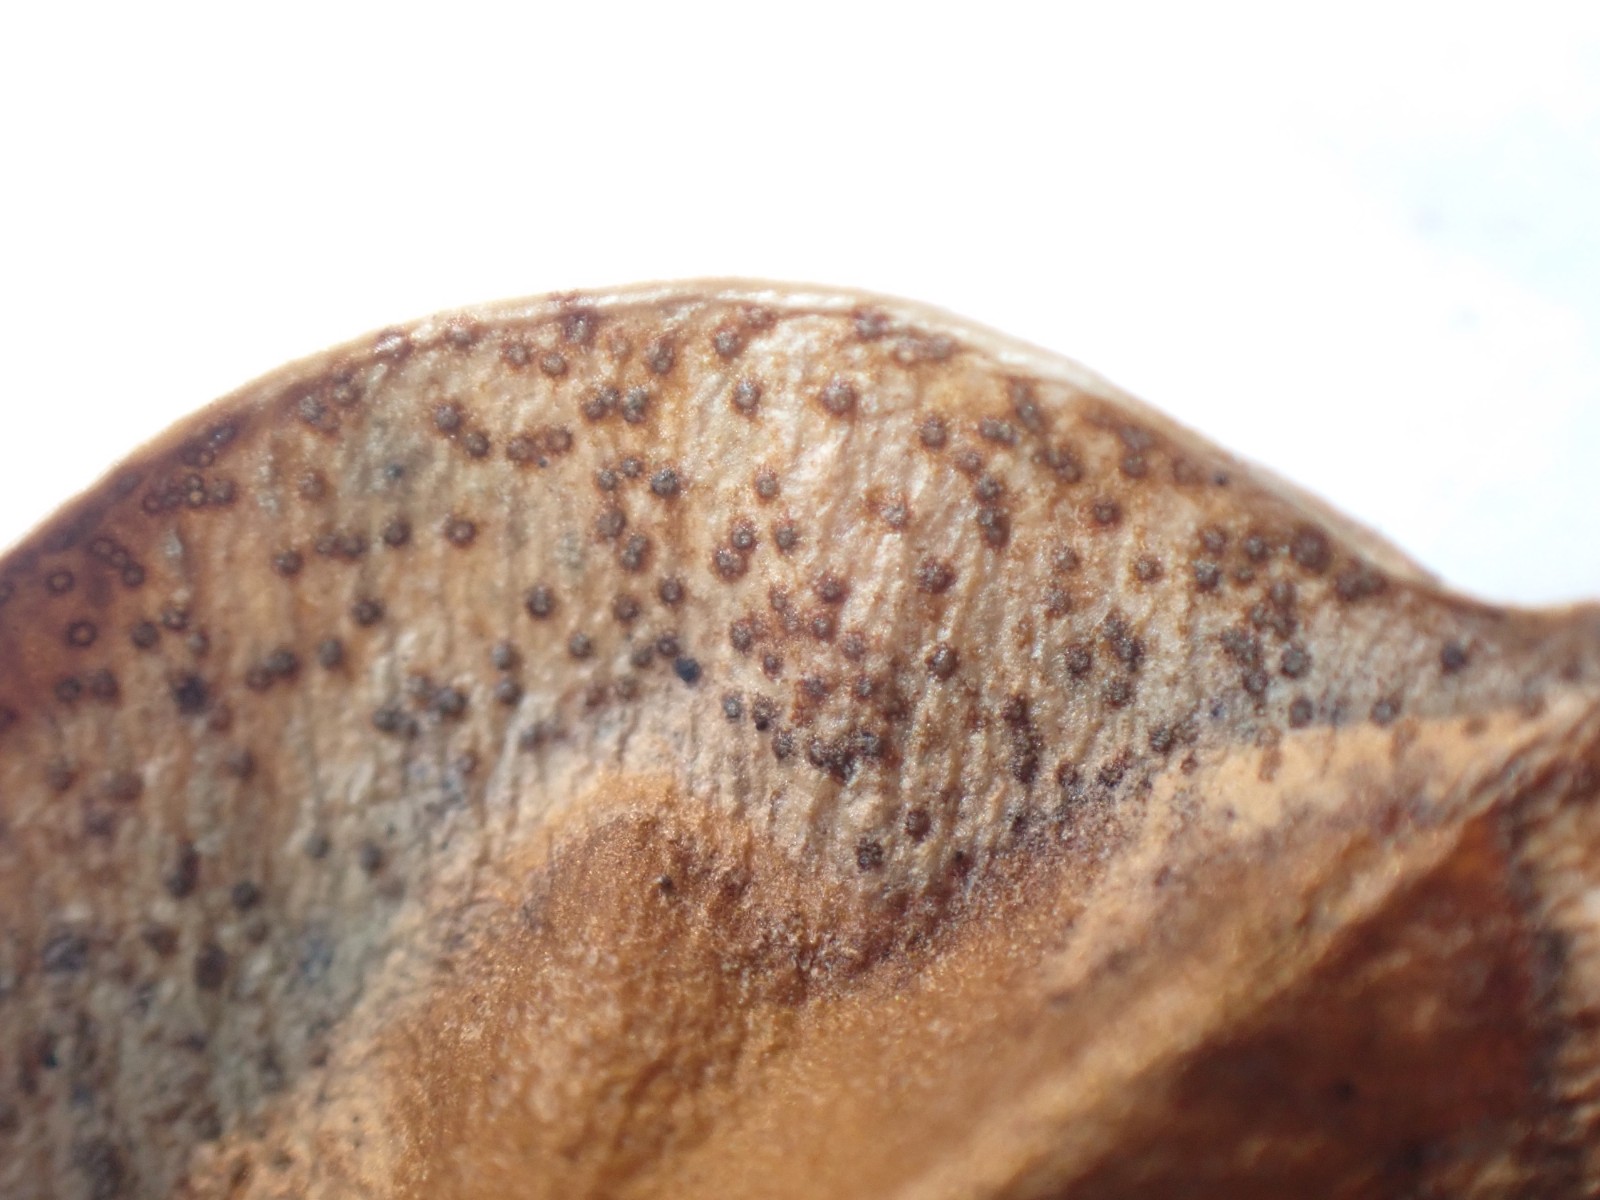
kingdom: Fungi
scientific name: Fungi
